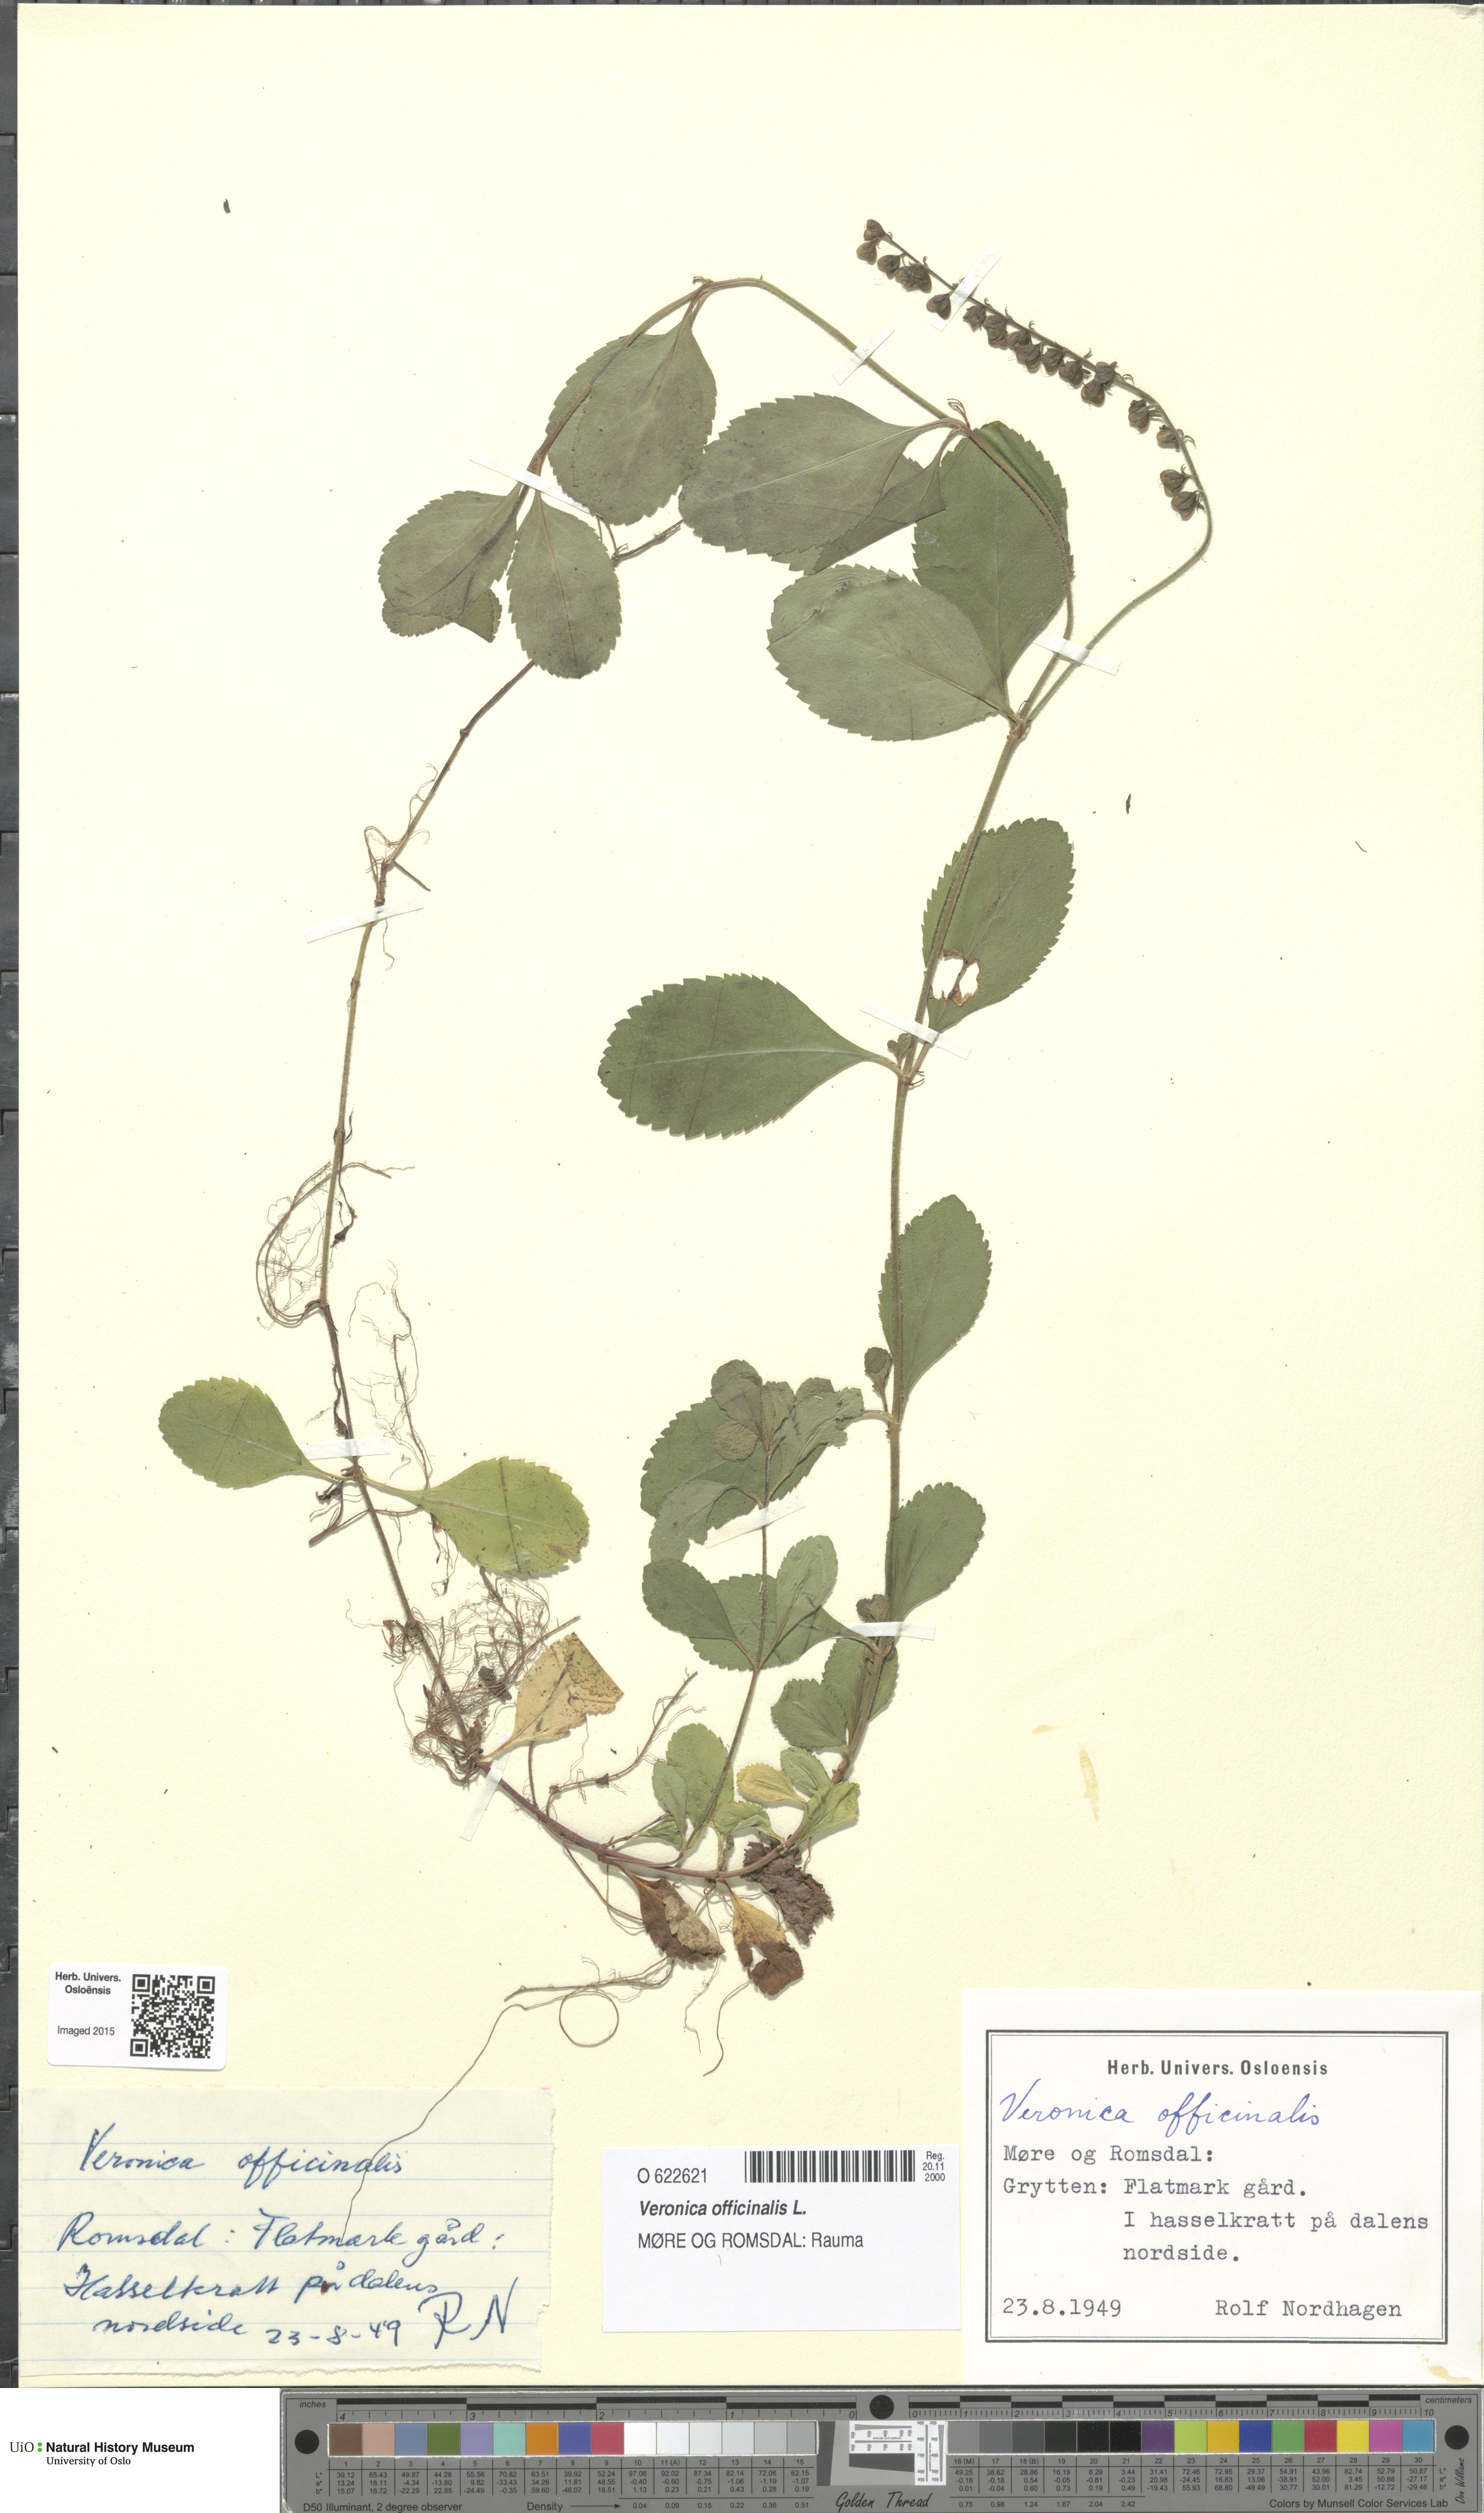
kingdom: Plantae
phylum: Tracheophyta
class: Magnoliopsida
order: Lamiales
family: Plantaginaceae
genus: Veronica
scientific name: Veronica officinalis
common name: Common speedwell
